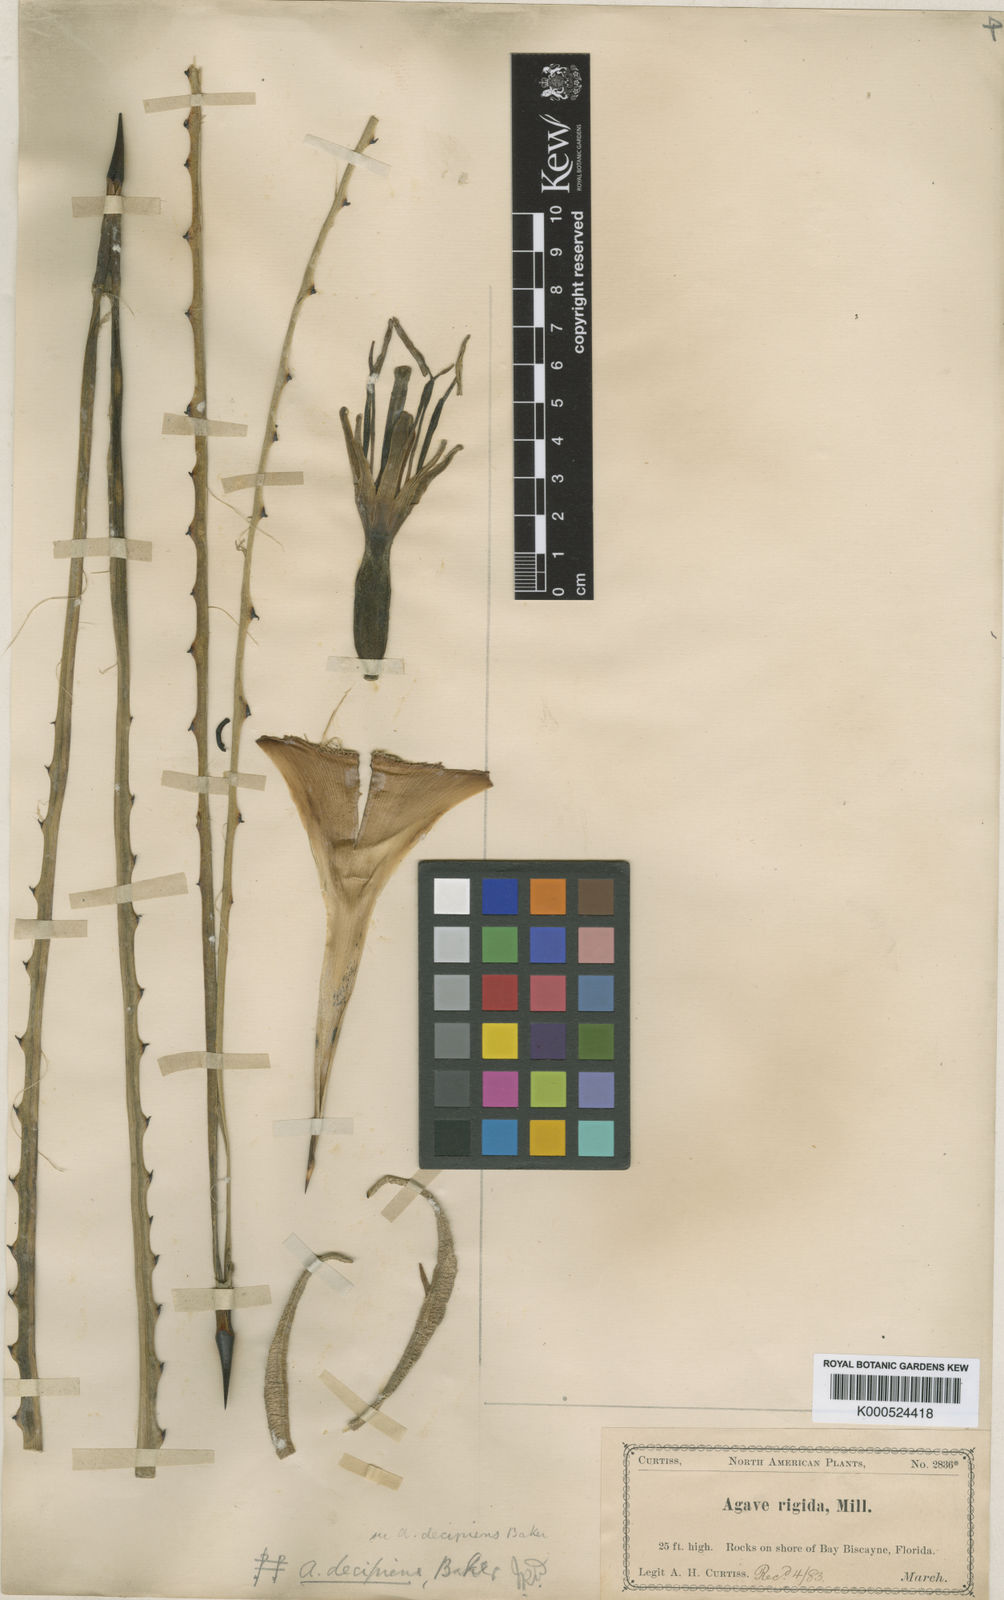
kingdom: Plantae
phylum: Tracheophyta
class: Liliopsida
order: Asparagales
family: Asparagaceae
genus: Agave
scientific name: Agave decipiens
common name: False sisal
